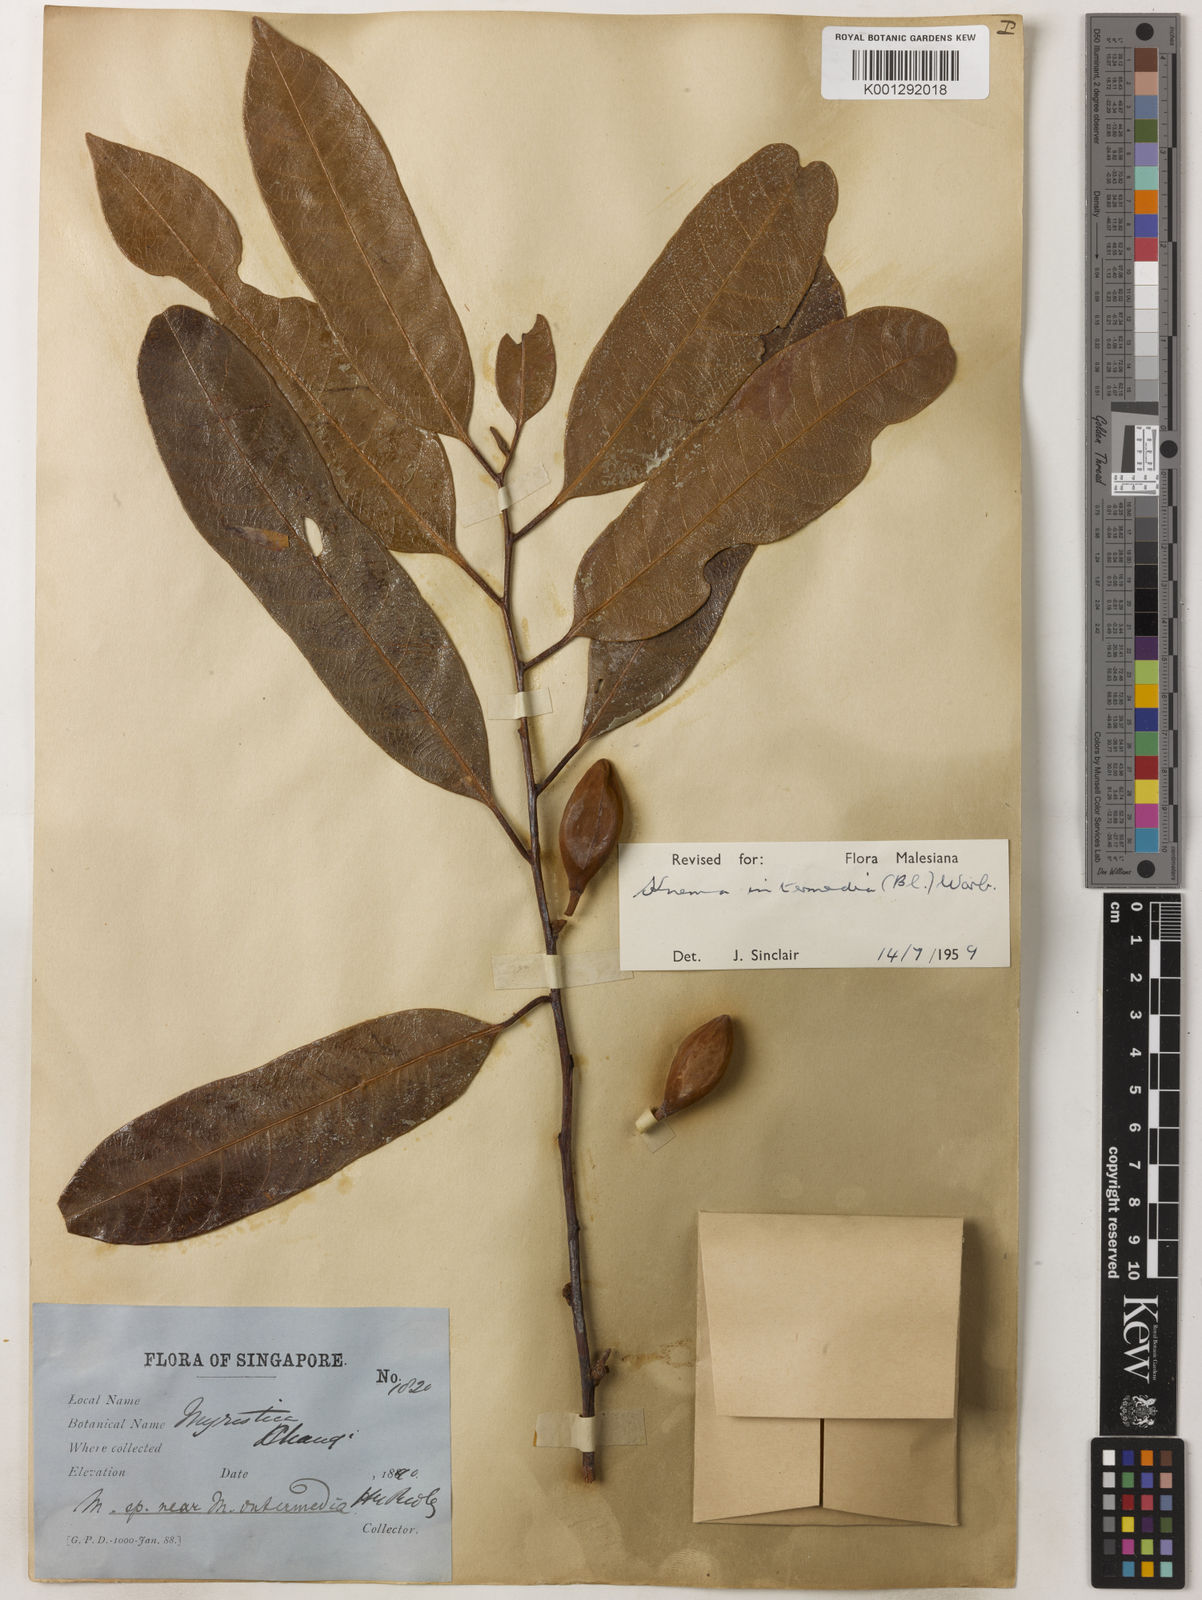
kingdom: Plantae
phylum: Tracheophyta
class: Magnoliopsida
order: Magnoliales
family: Myristicaceae
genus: Knema
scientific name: Knema intermedia
